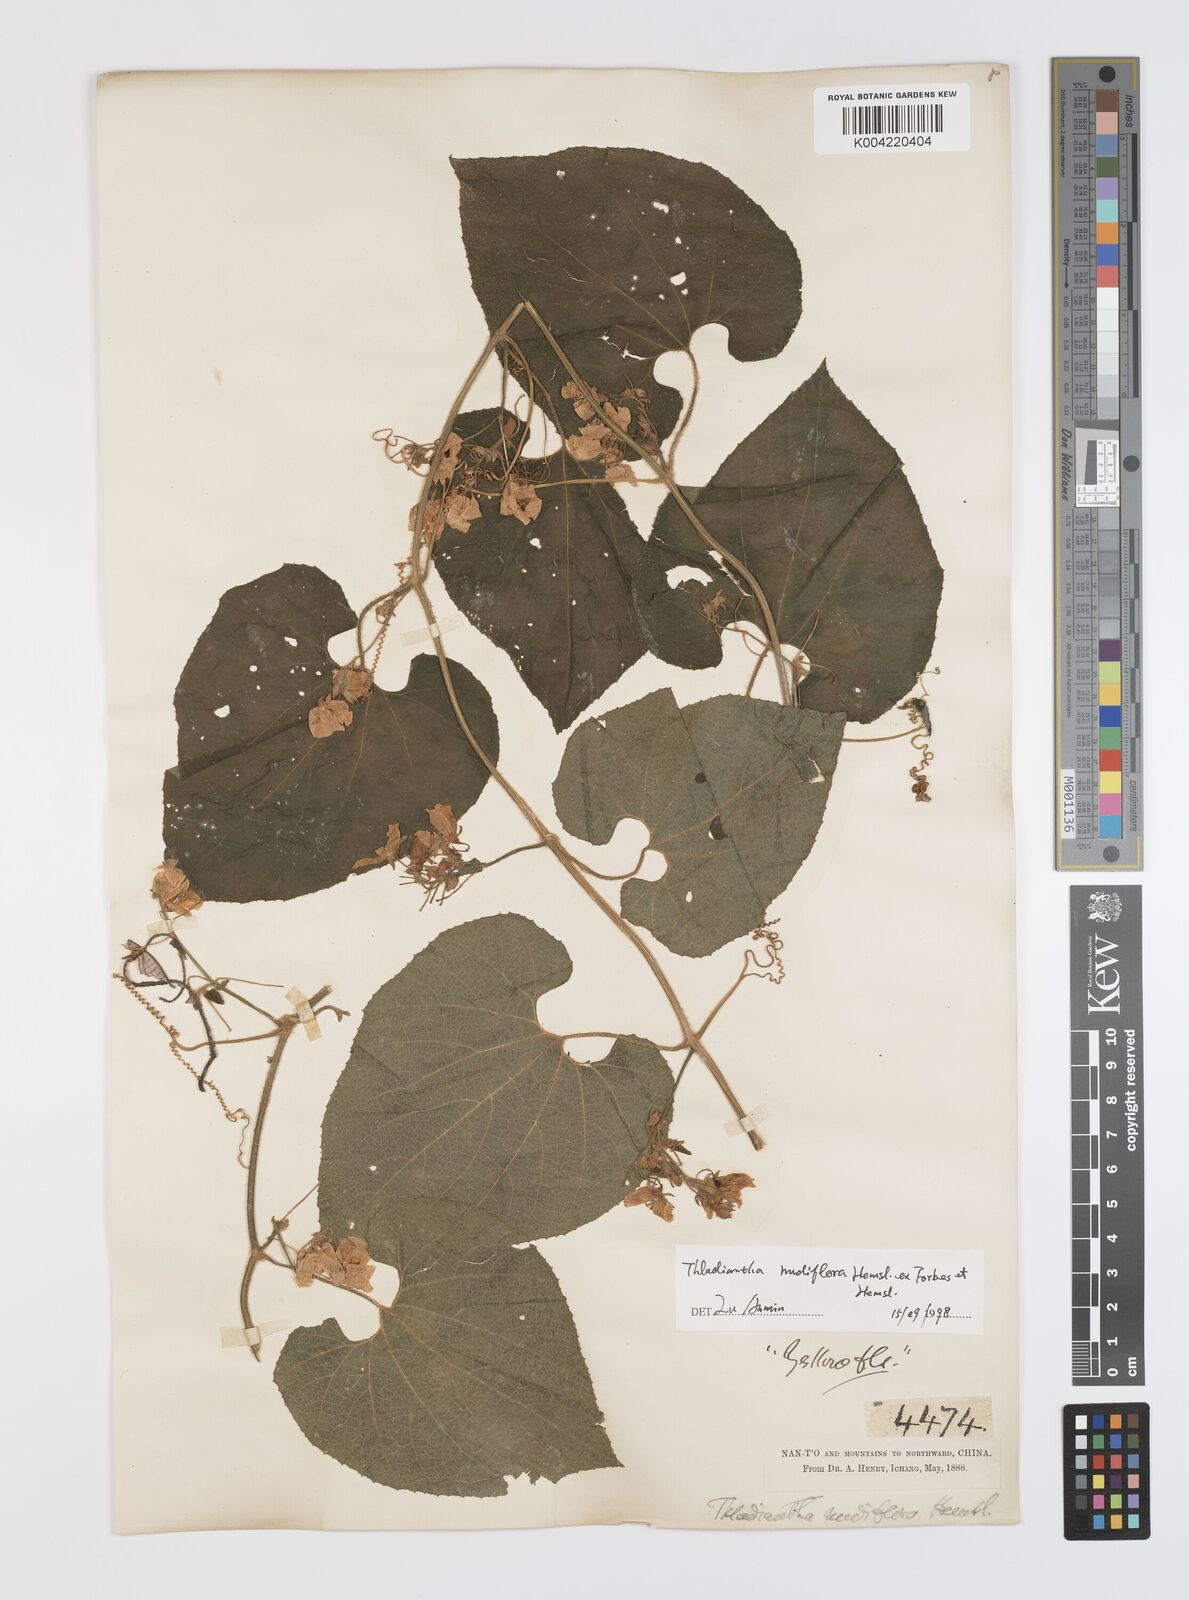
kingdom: Plantae
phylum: Tracheophyta
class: Magnoliopsida
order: Cucurbitales
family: Cucurbitaceae
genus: Thladiantha
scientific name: Thladiantha nudiflora
